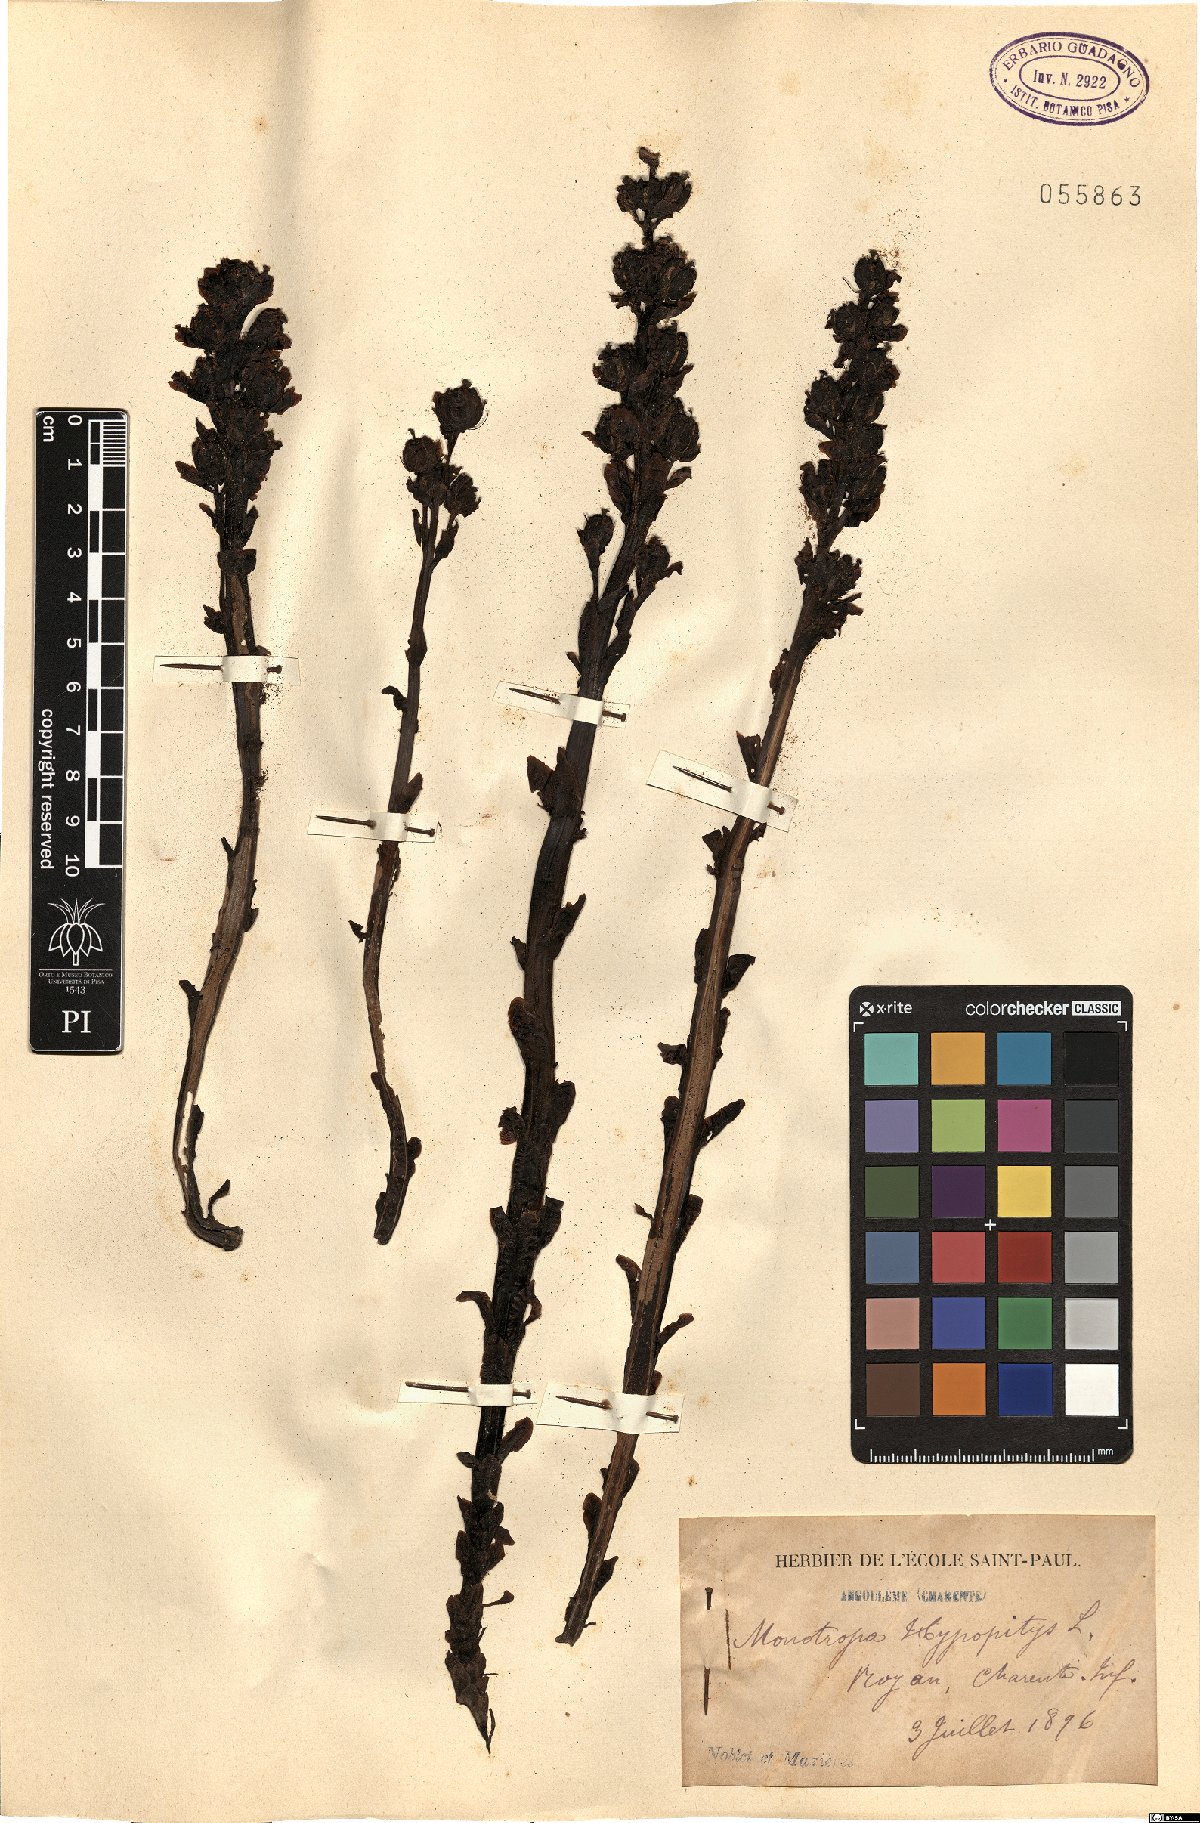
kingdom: Plantae
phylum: Tracheophyta
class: Magnoliopsida
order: Ericales
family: Ericaceae
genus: Hypopitys
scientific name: Hypopitys monotropa
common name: Yellow bird's-nest
